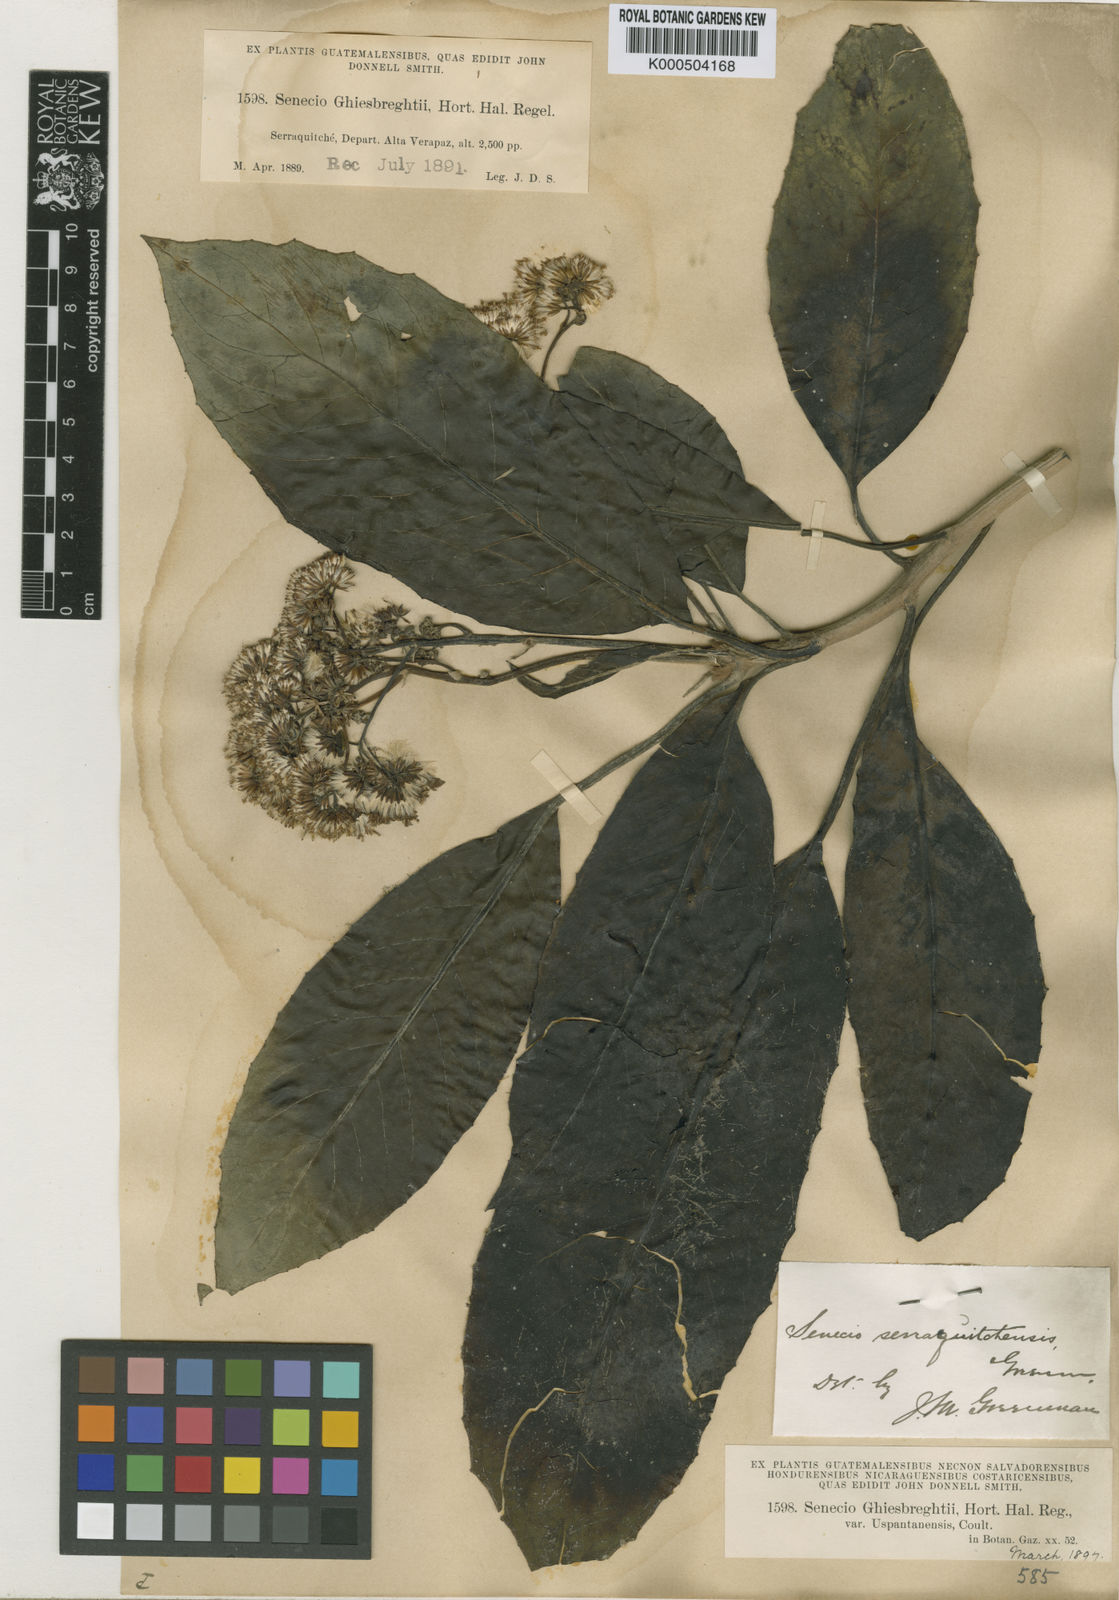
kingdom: Plantae
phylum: Tracheophyta
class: Magnoliopsida
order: Asterales
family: Asteraceae
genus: Telanthophora
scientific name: Telanthophora grandifolia
